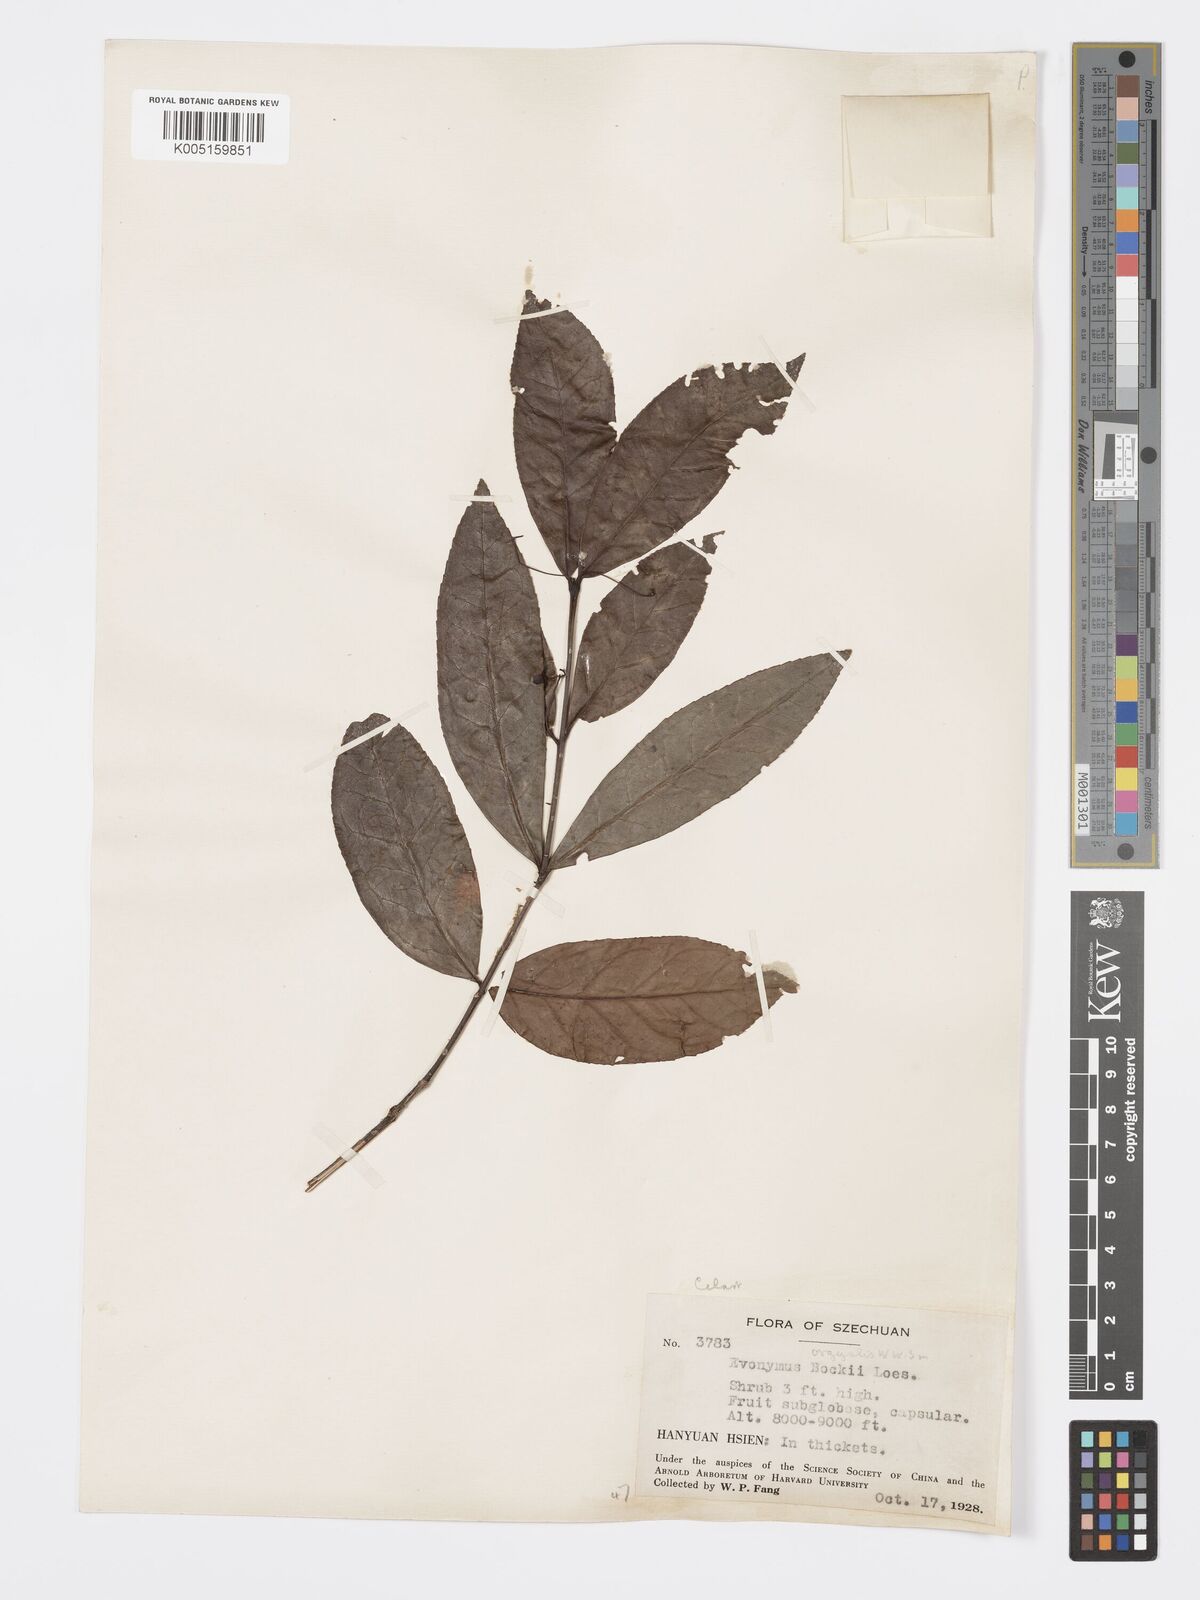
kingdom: Plantae
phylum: Tracheophyta
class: Magnoliopsida
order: Celastrales
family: Celastraceae
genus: Euonymus
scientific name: Euonymus bockii
